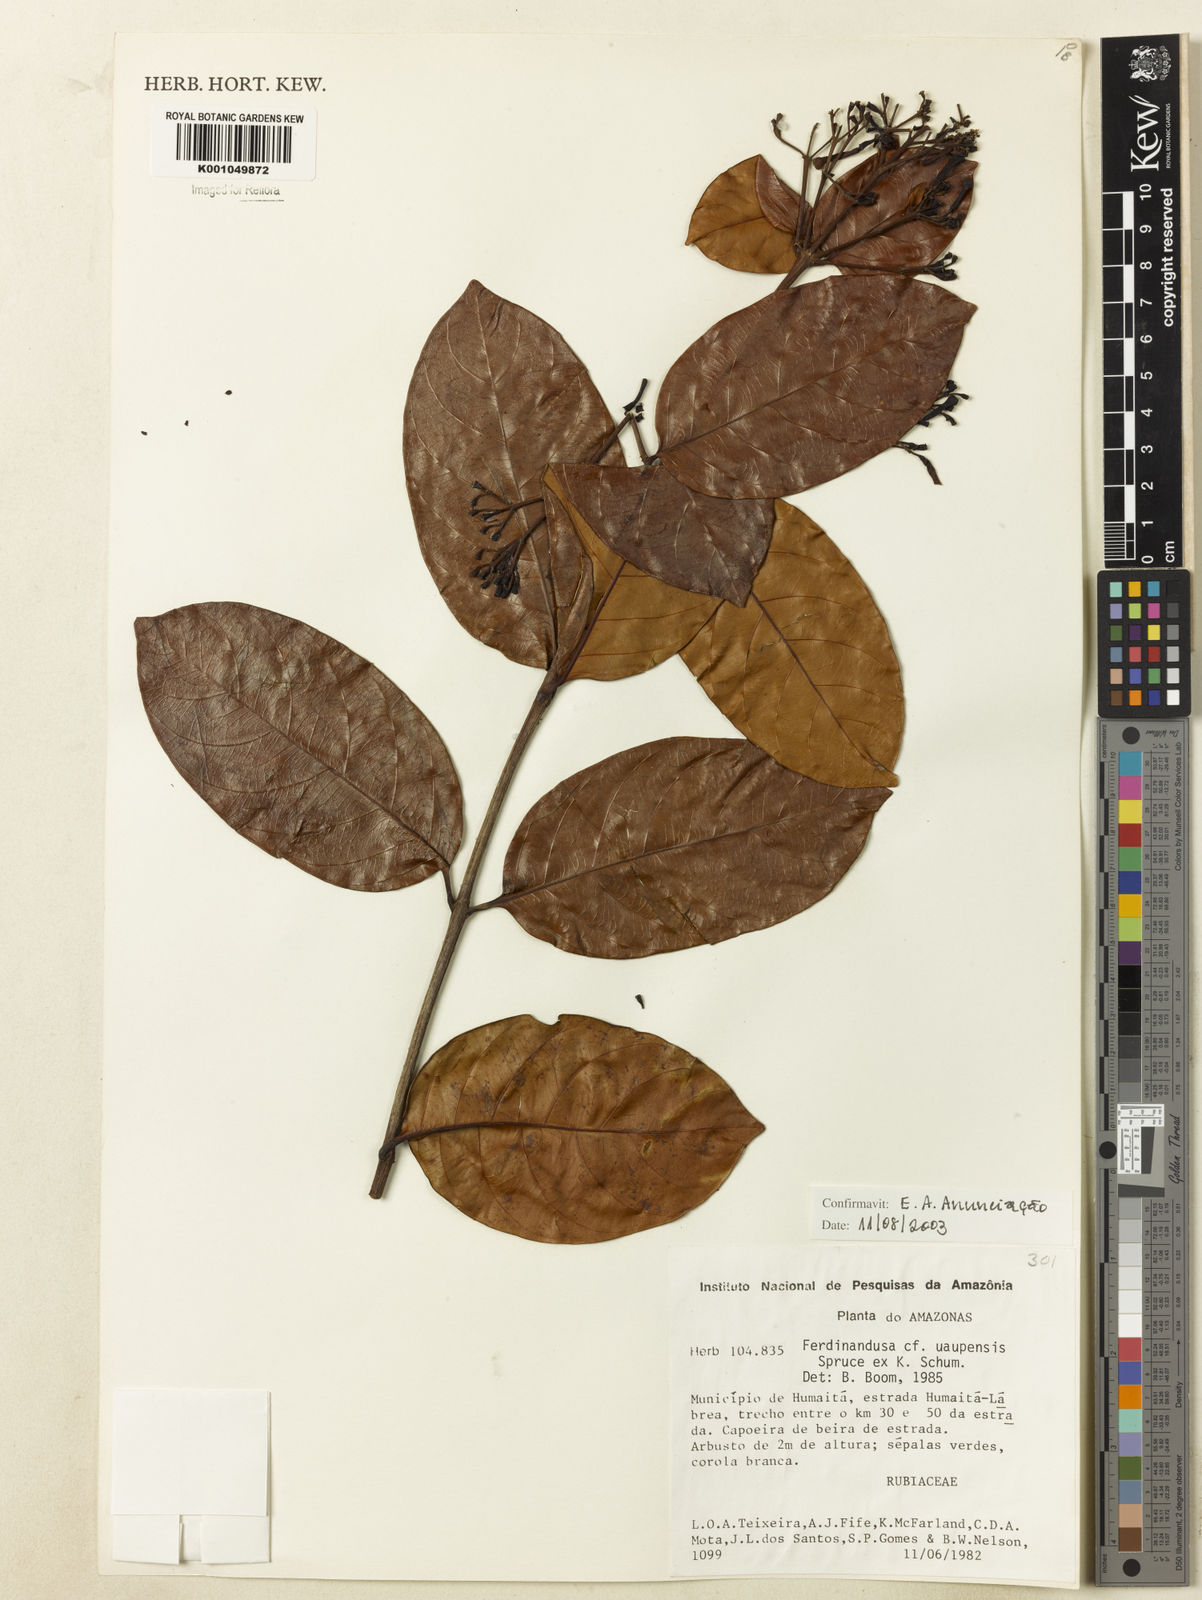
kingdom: Plantae
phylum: Tracheophyta
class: Magnoliopsida
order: Gentianales
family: Rubiaceae
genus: Ferdinandusa
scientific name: Ferdinandusa uaupensis
